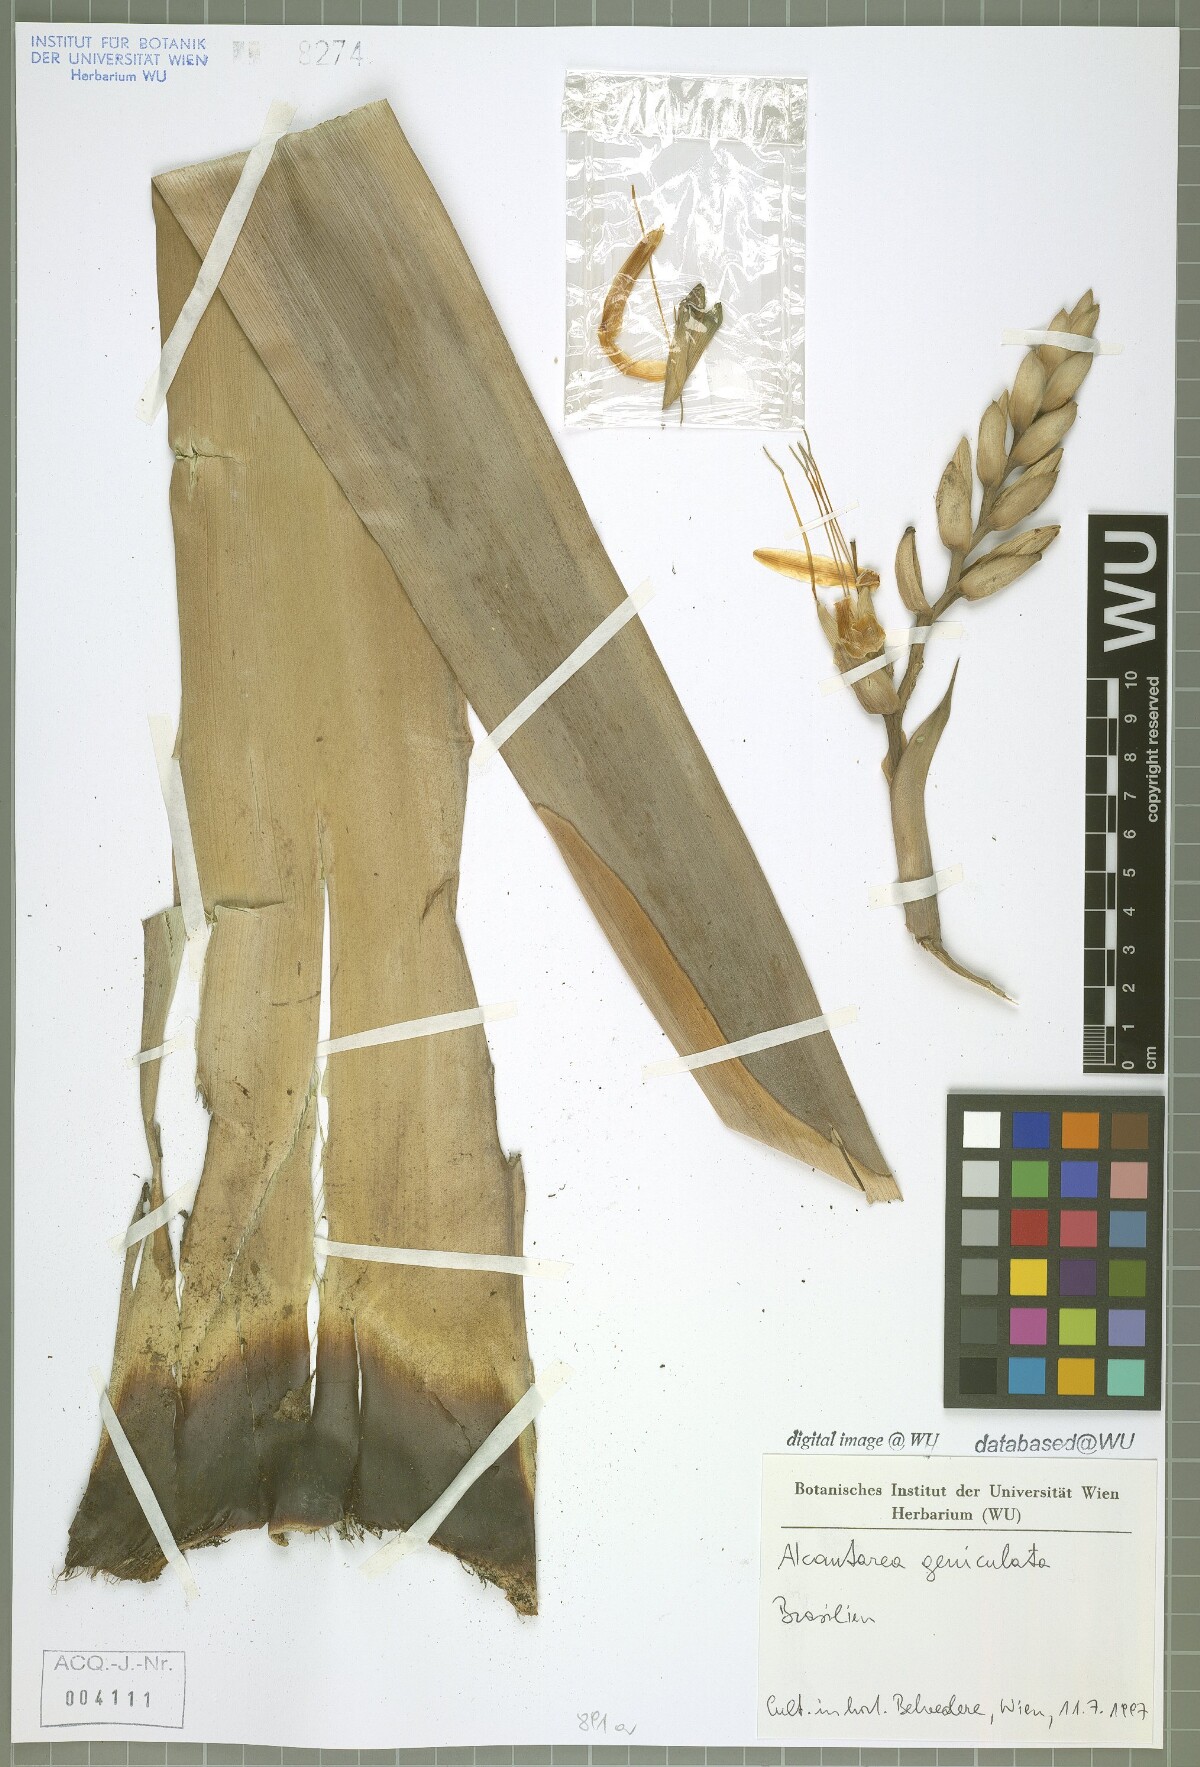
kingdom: Plantae
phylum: Tracheophyta
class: Liliopsida
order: Poales
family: Bromeliaceae
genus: Alcantarea
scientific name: Alcantarea geniculata
